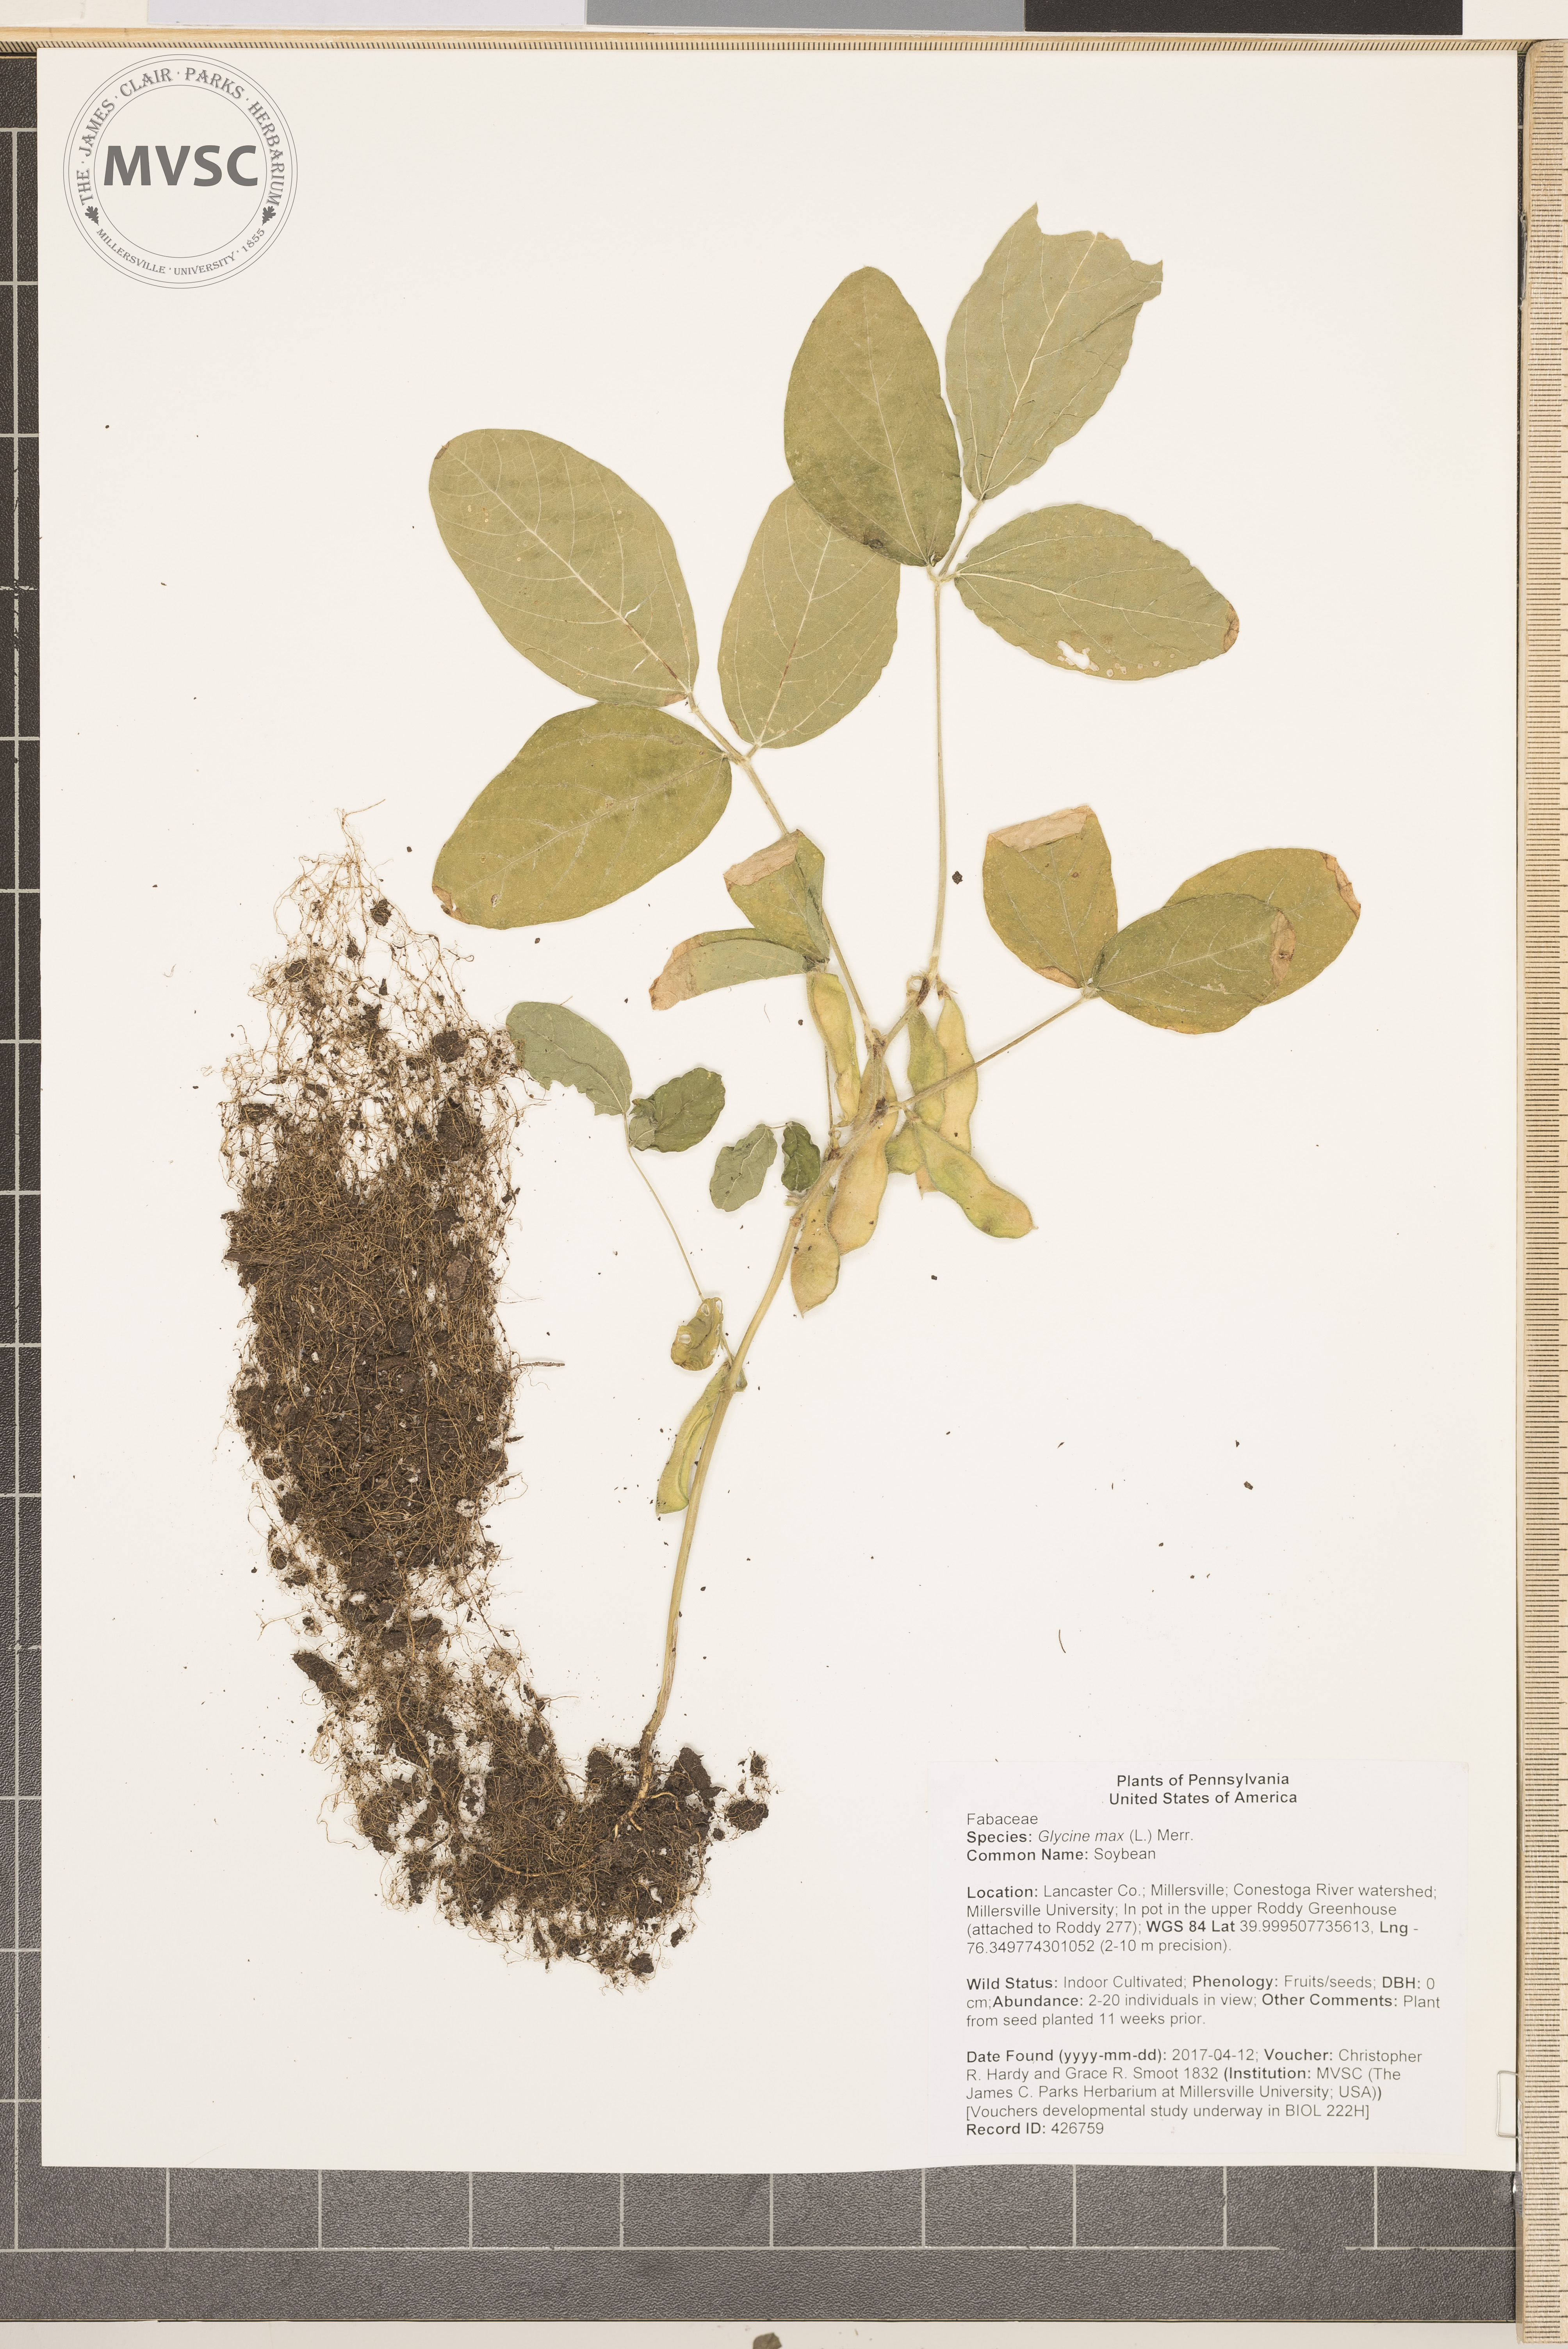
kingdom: Plantae
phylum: Tracheophyta
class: Magnoliopsida
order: Fabales
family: Fabaceae
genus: Glycine
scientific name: Glycine max
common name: Soybean
